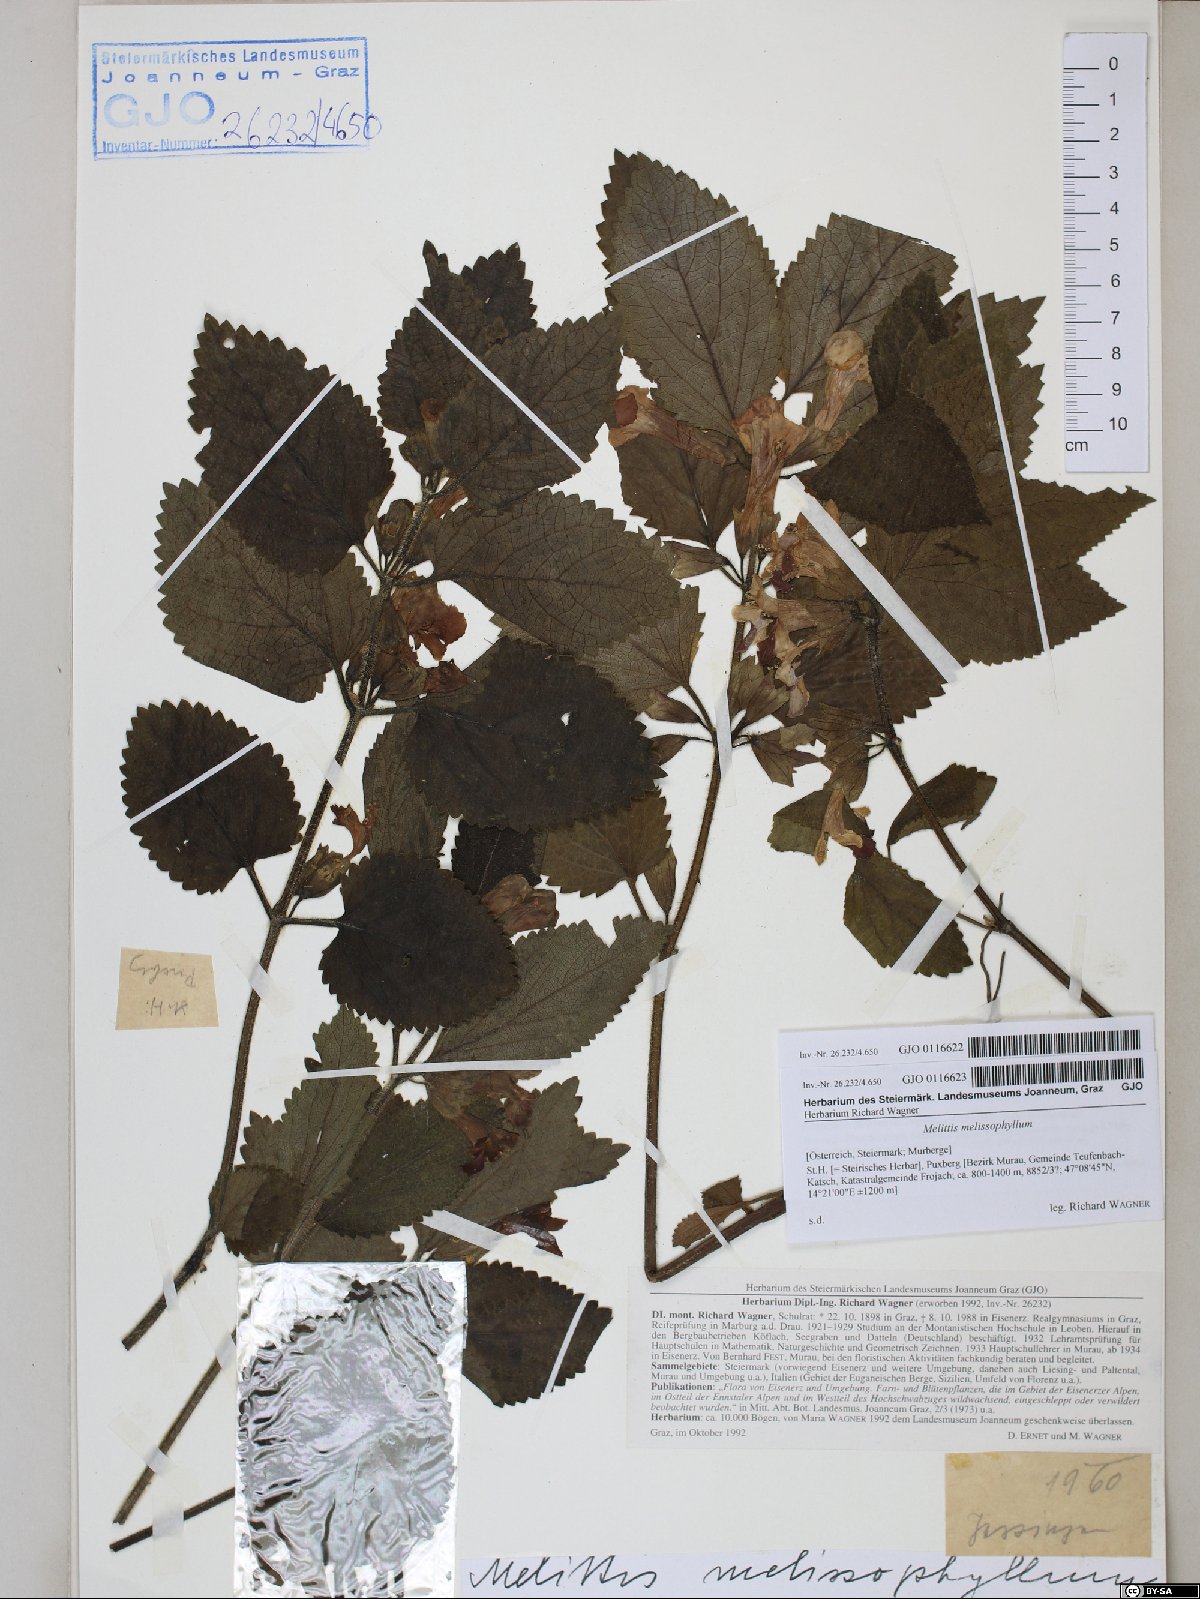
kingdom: Plantae
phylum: Tracheophyta
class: Magnoliopsida
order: Lamiales
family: Lamiaceae
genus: Melittis
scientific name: Melittis melissophyllum
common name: Bastard balm
